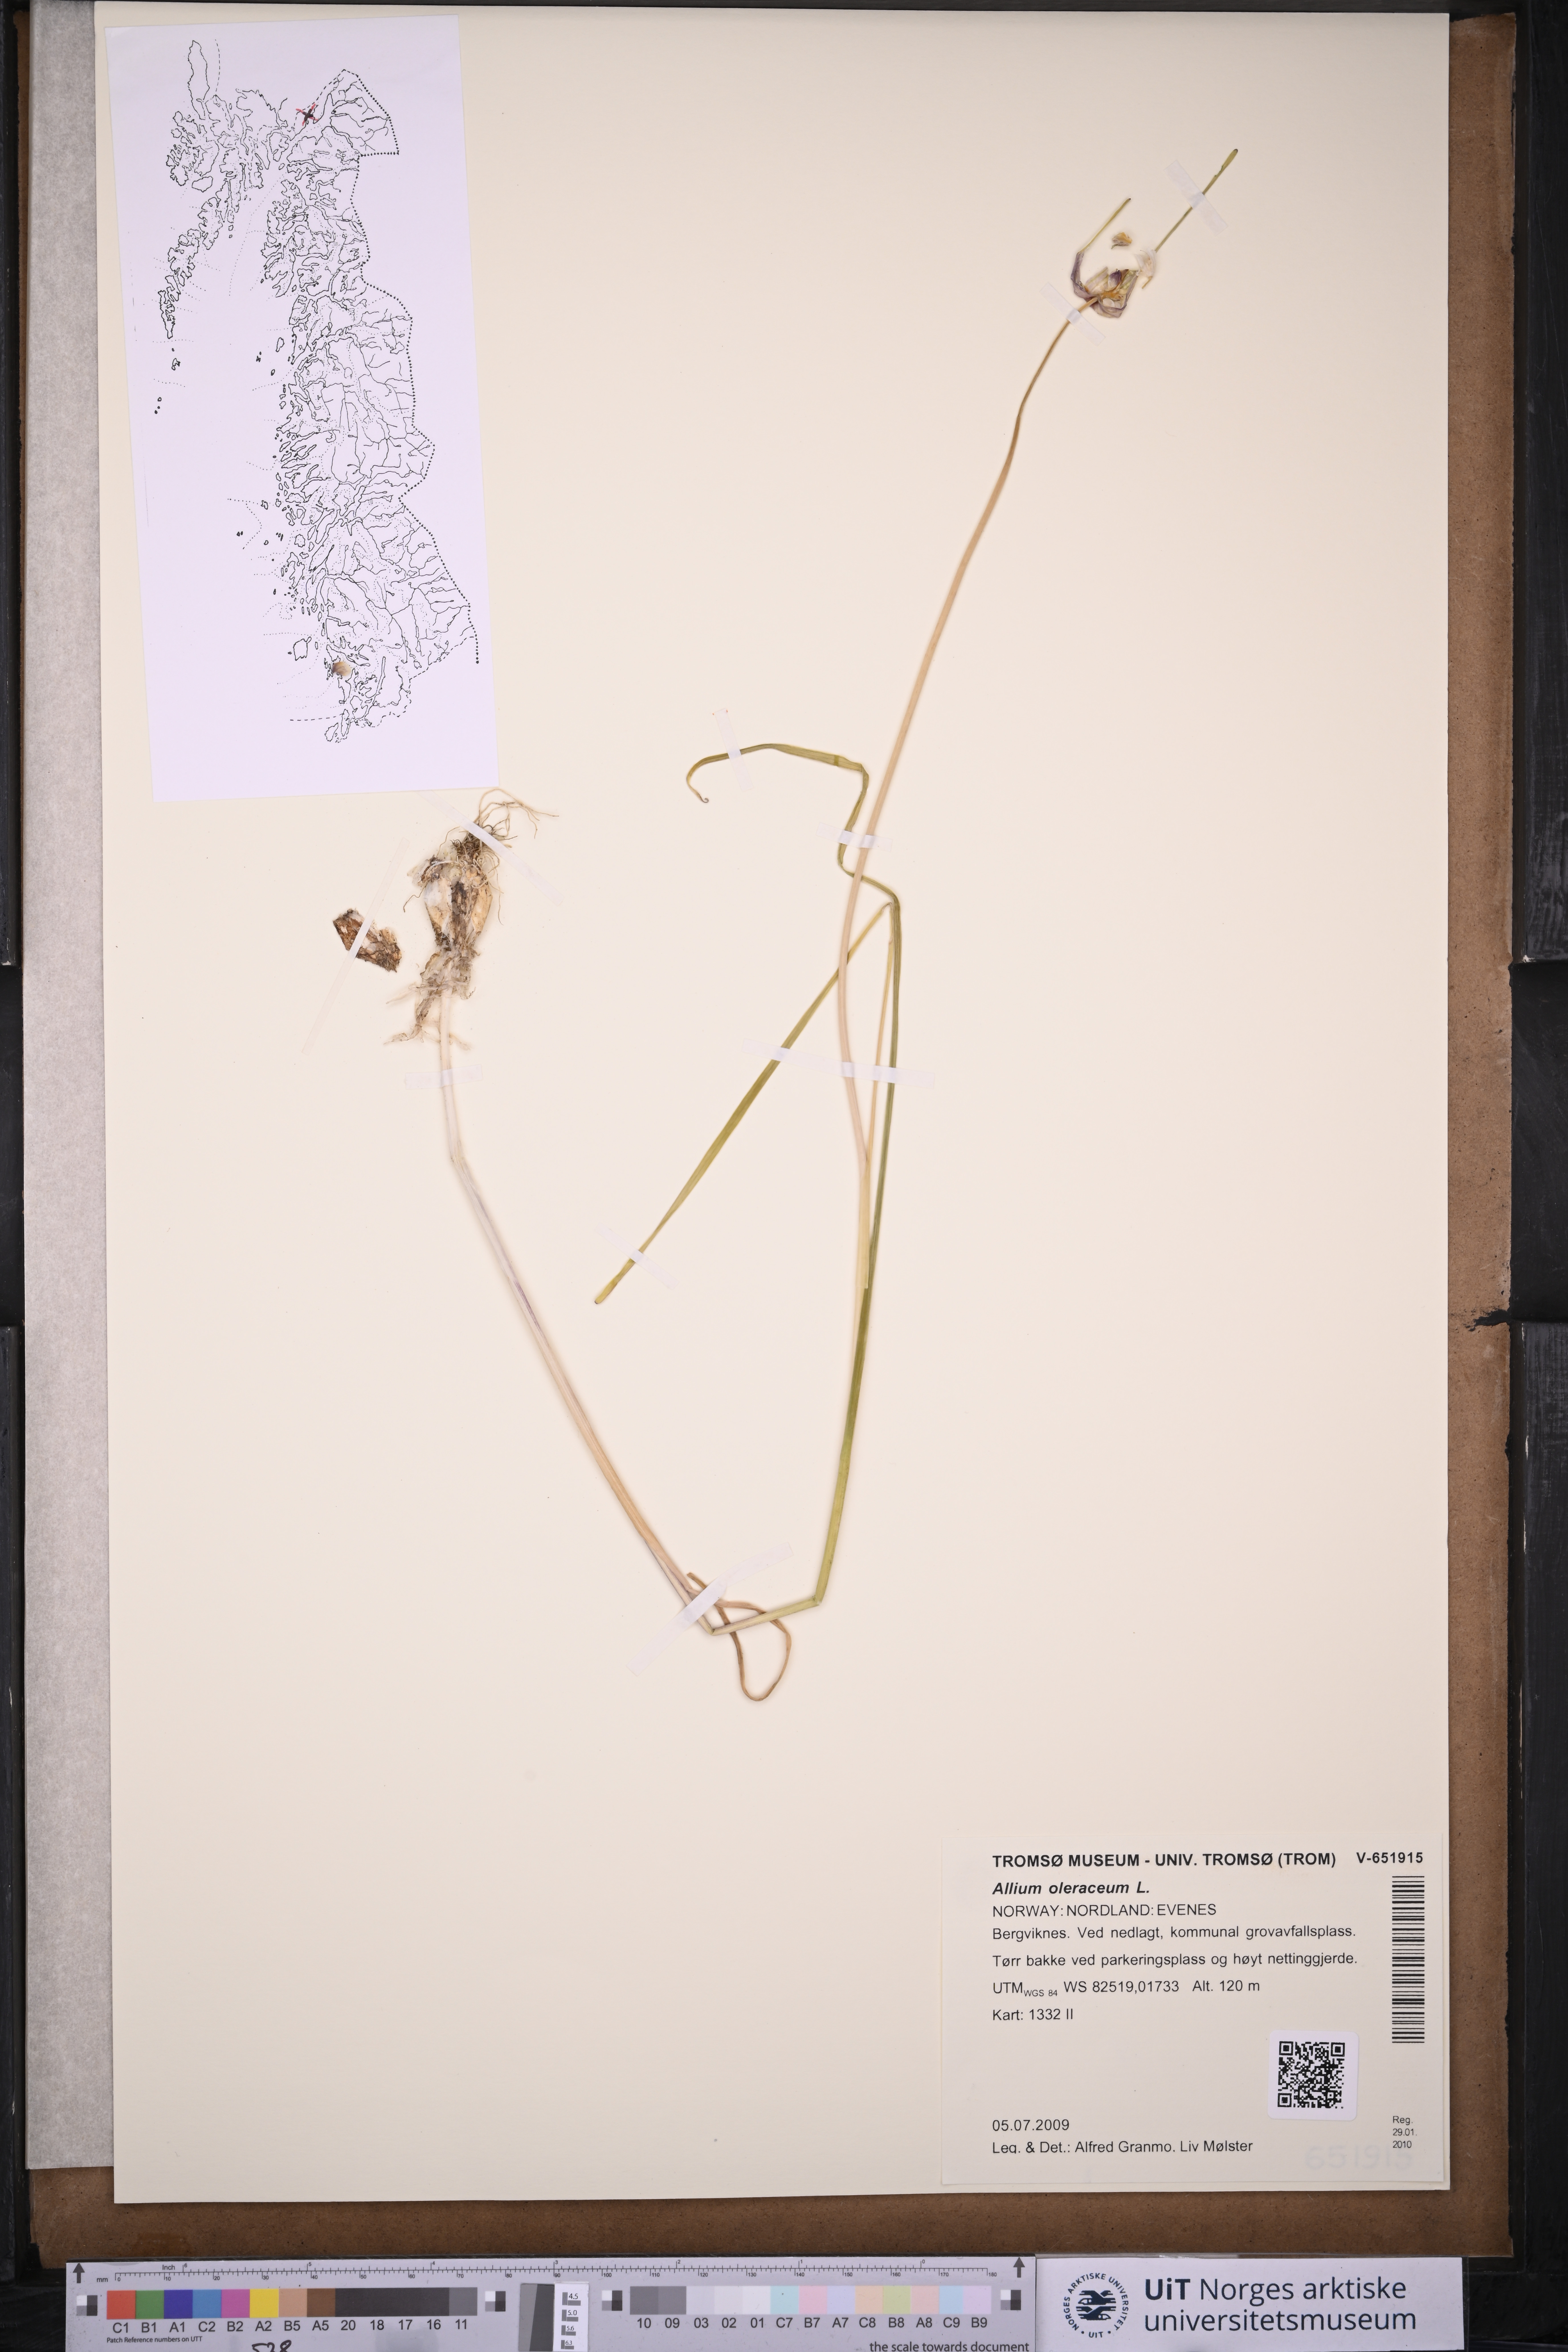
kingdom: Plantae
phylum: Tracheophyta
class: Liliopsida
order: Asparagales
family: Amaryllidaceae
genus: Allium
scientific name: Allium oleraceum
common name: Field garlic
